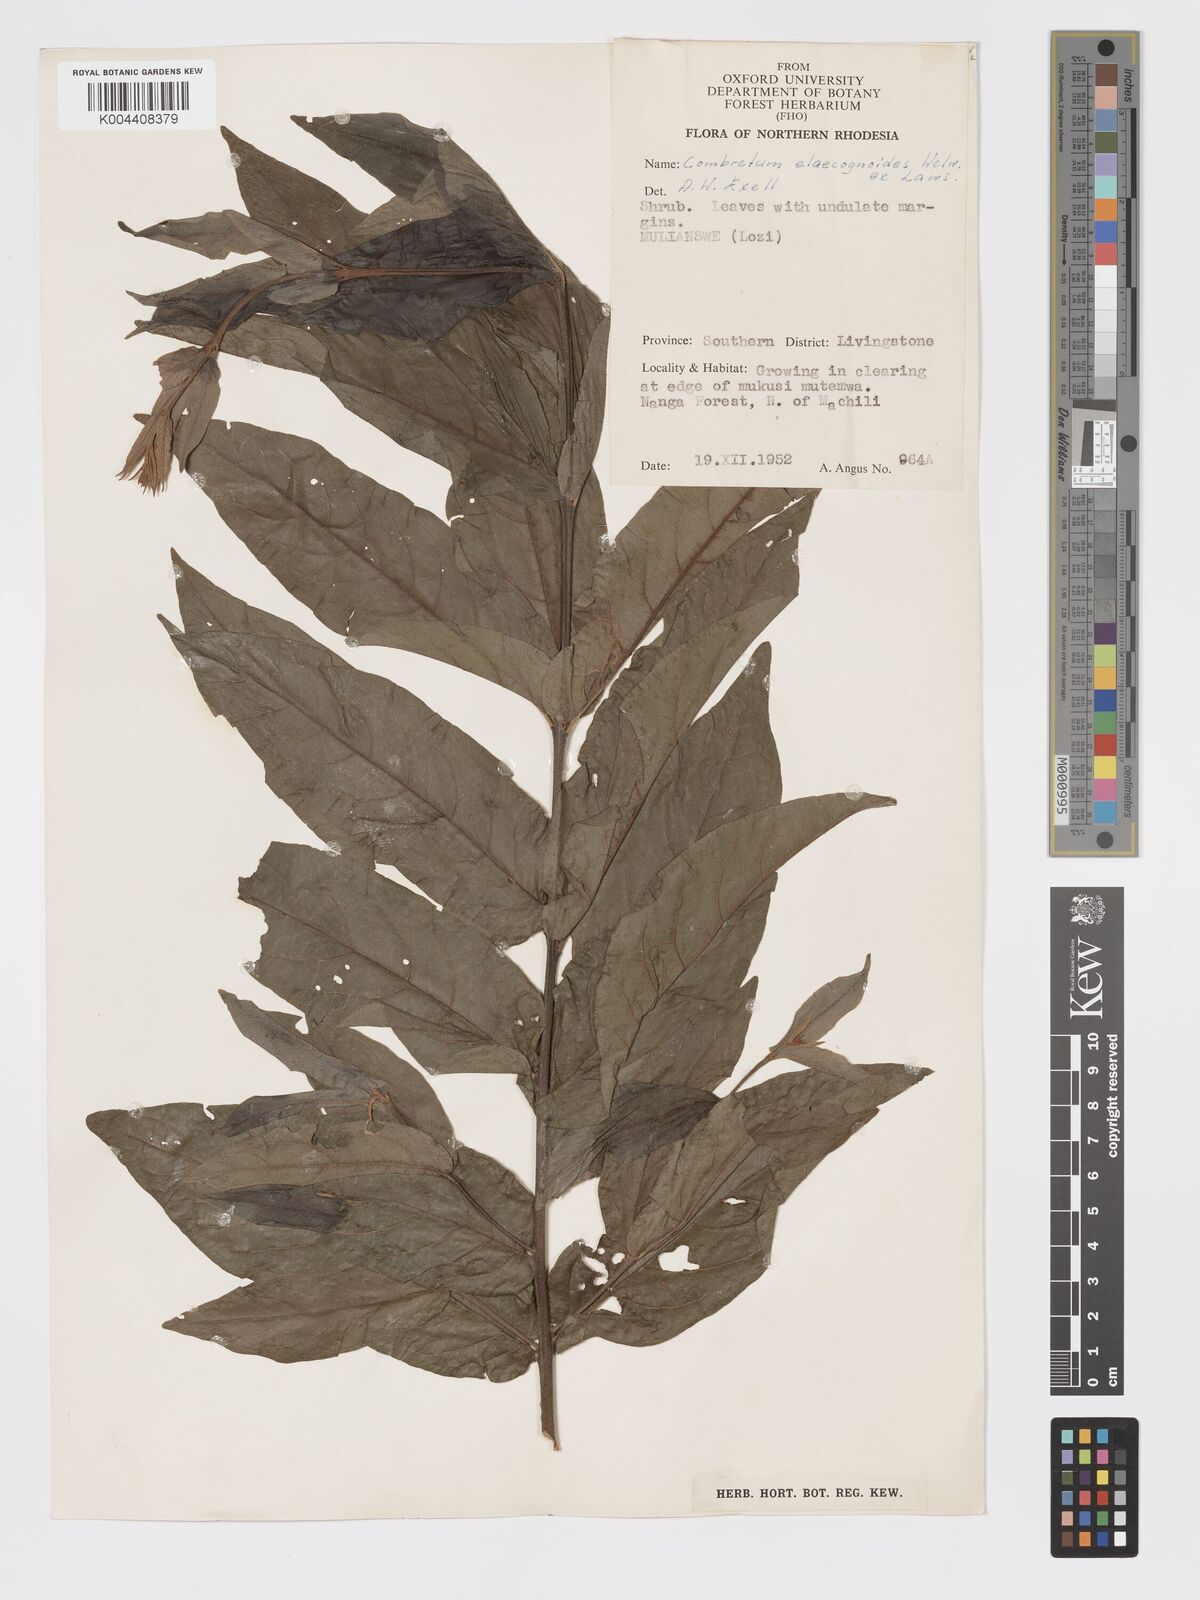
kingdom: Plantae
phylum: Tracheophyta
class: Magnoliopsida
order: Myrtales
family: Combretaceae
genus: Combretum
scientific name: Combretum elaeagnoides
